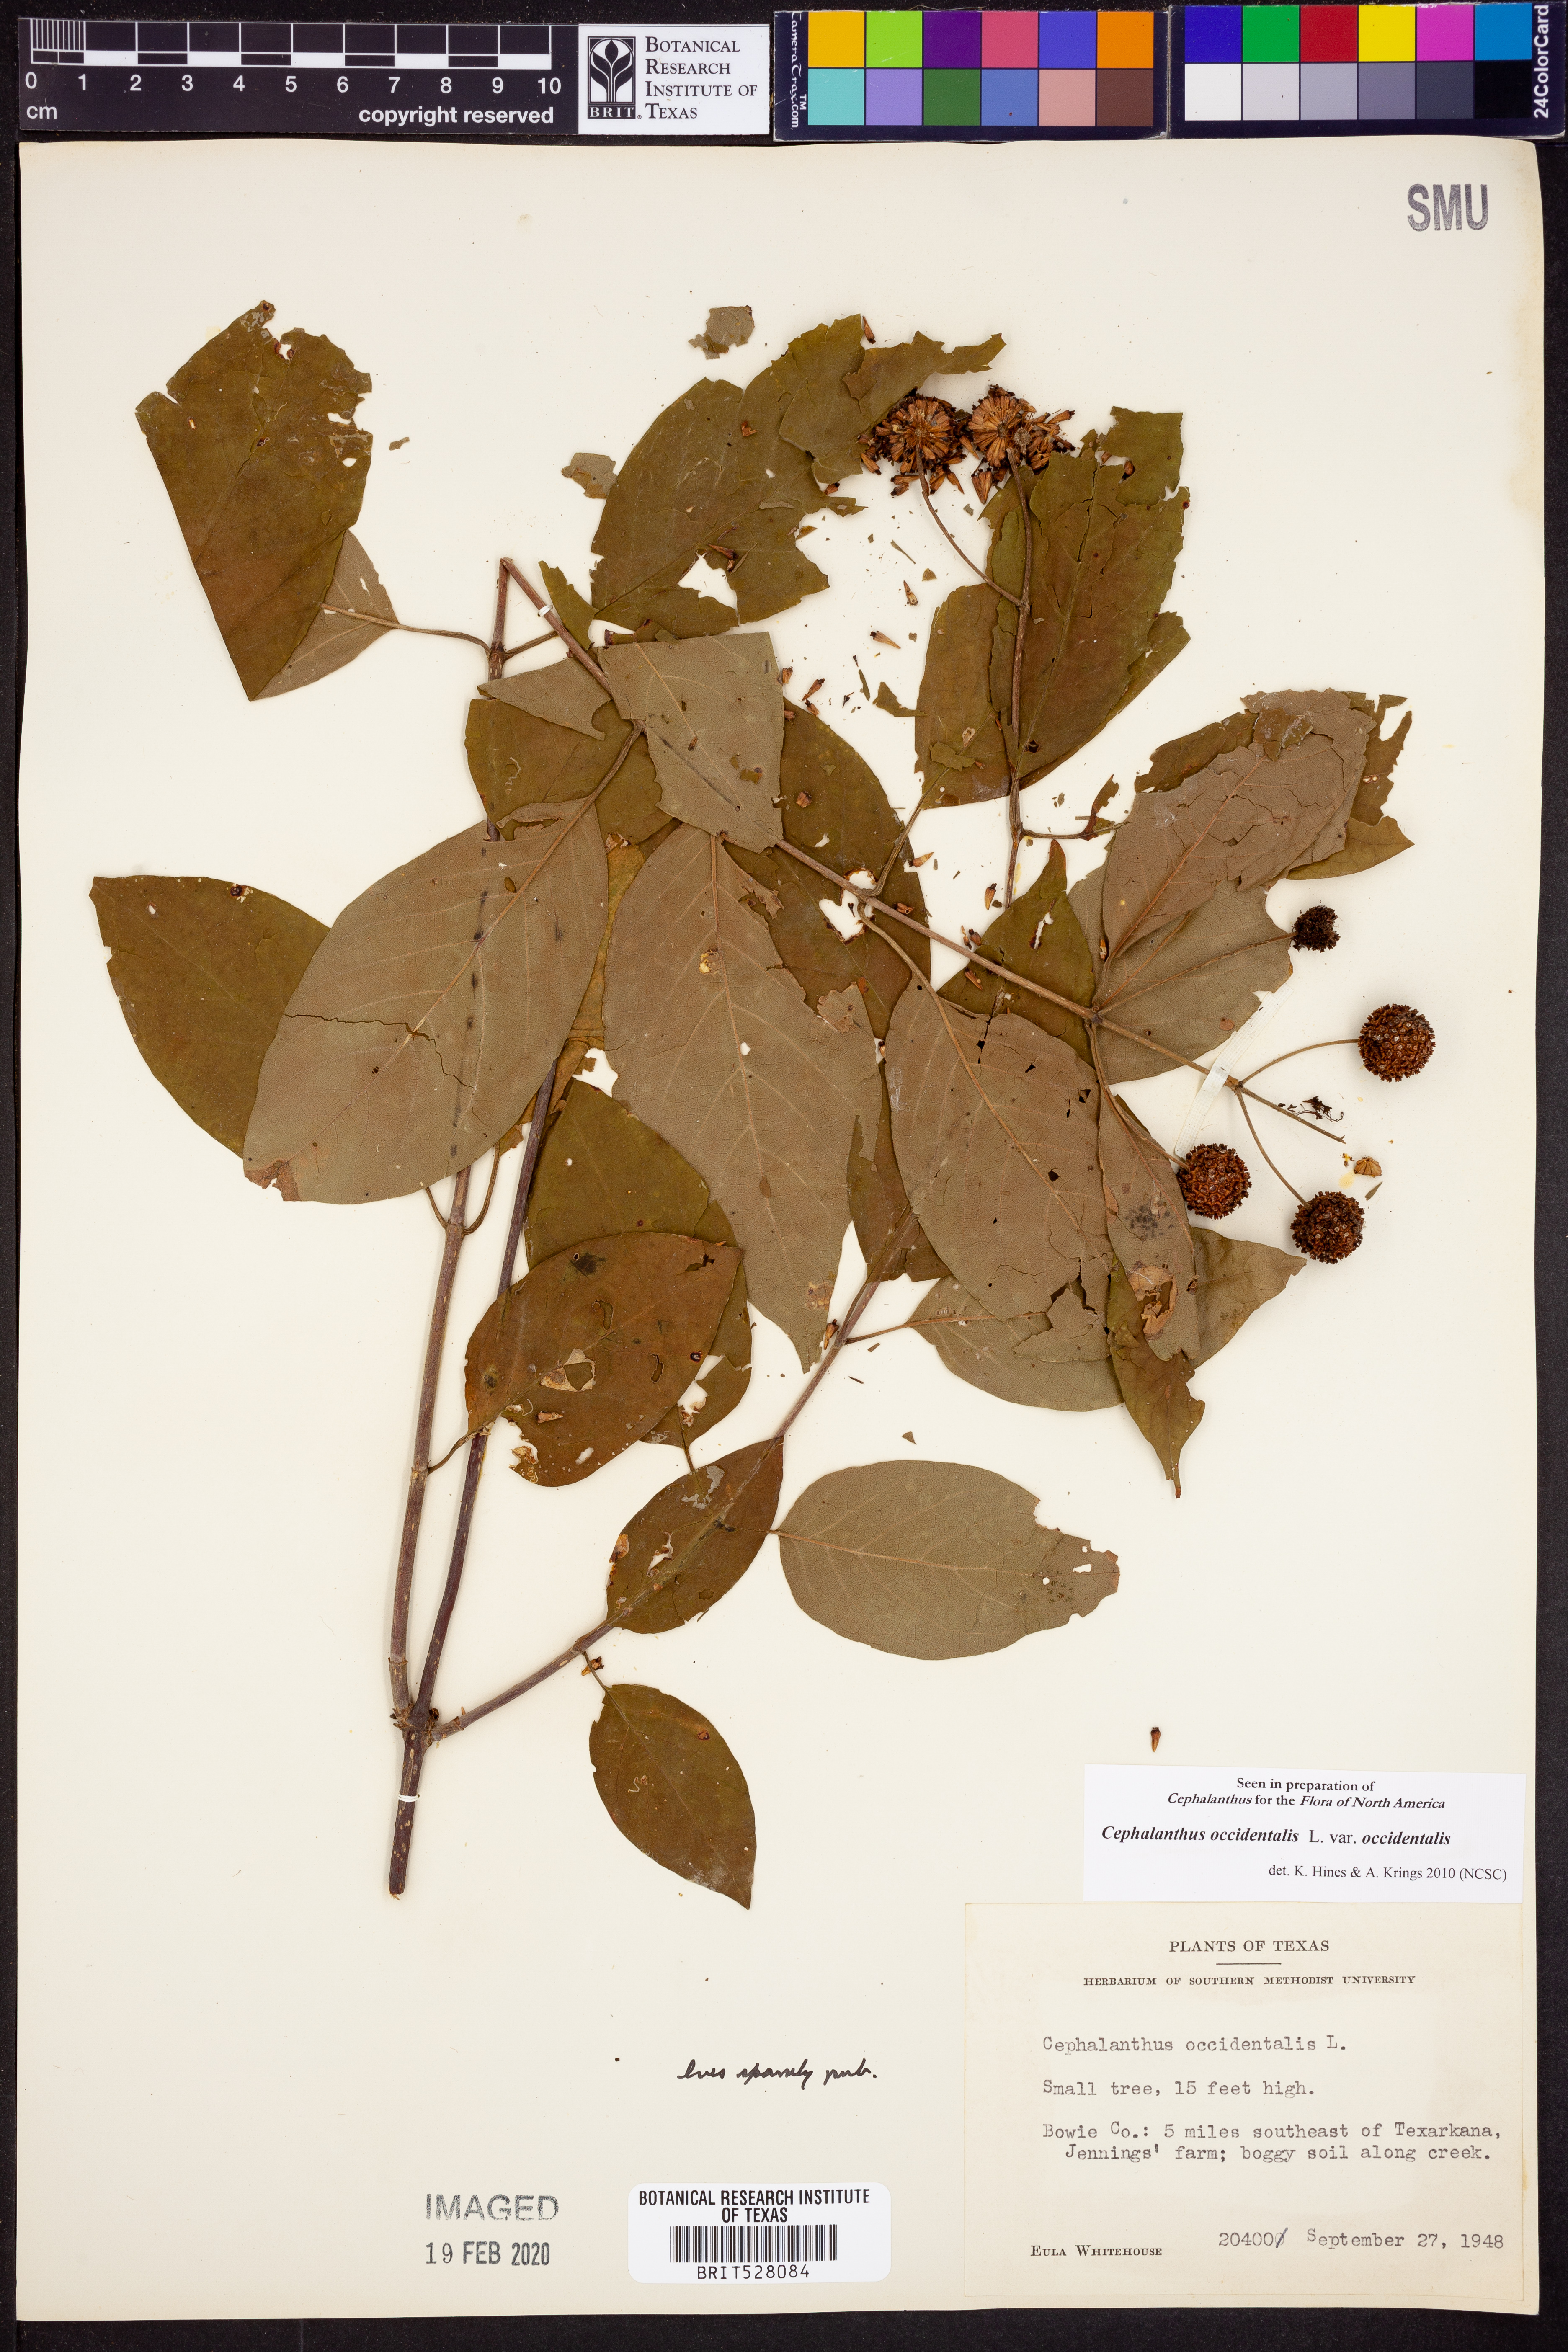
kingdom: Plantae
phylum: Tracheophyta
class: Magnoliopsida
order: Gentianales
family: Rubiaceae
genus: Cephalanthus
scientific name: Cephalanthus occidentalis
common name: Button-willow
